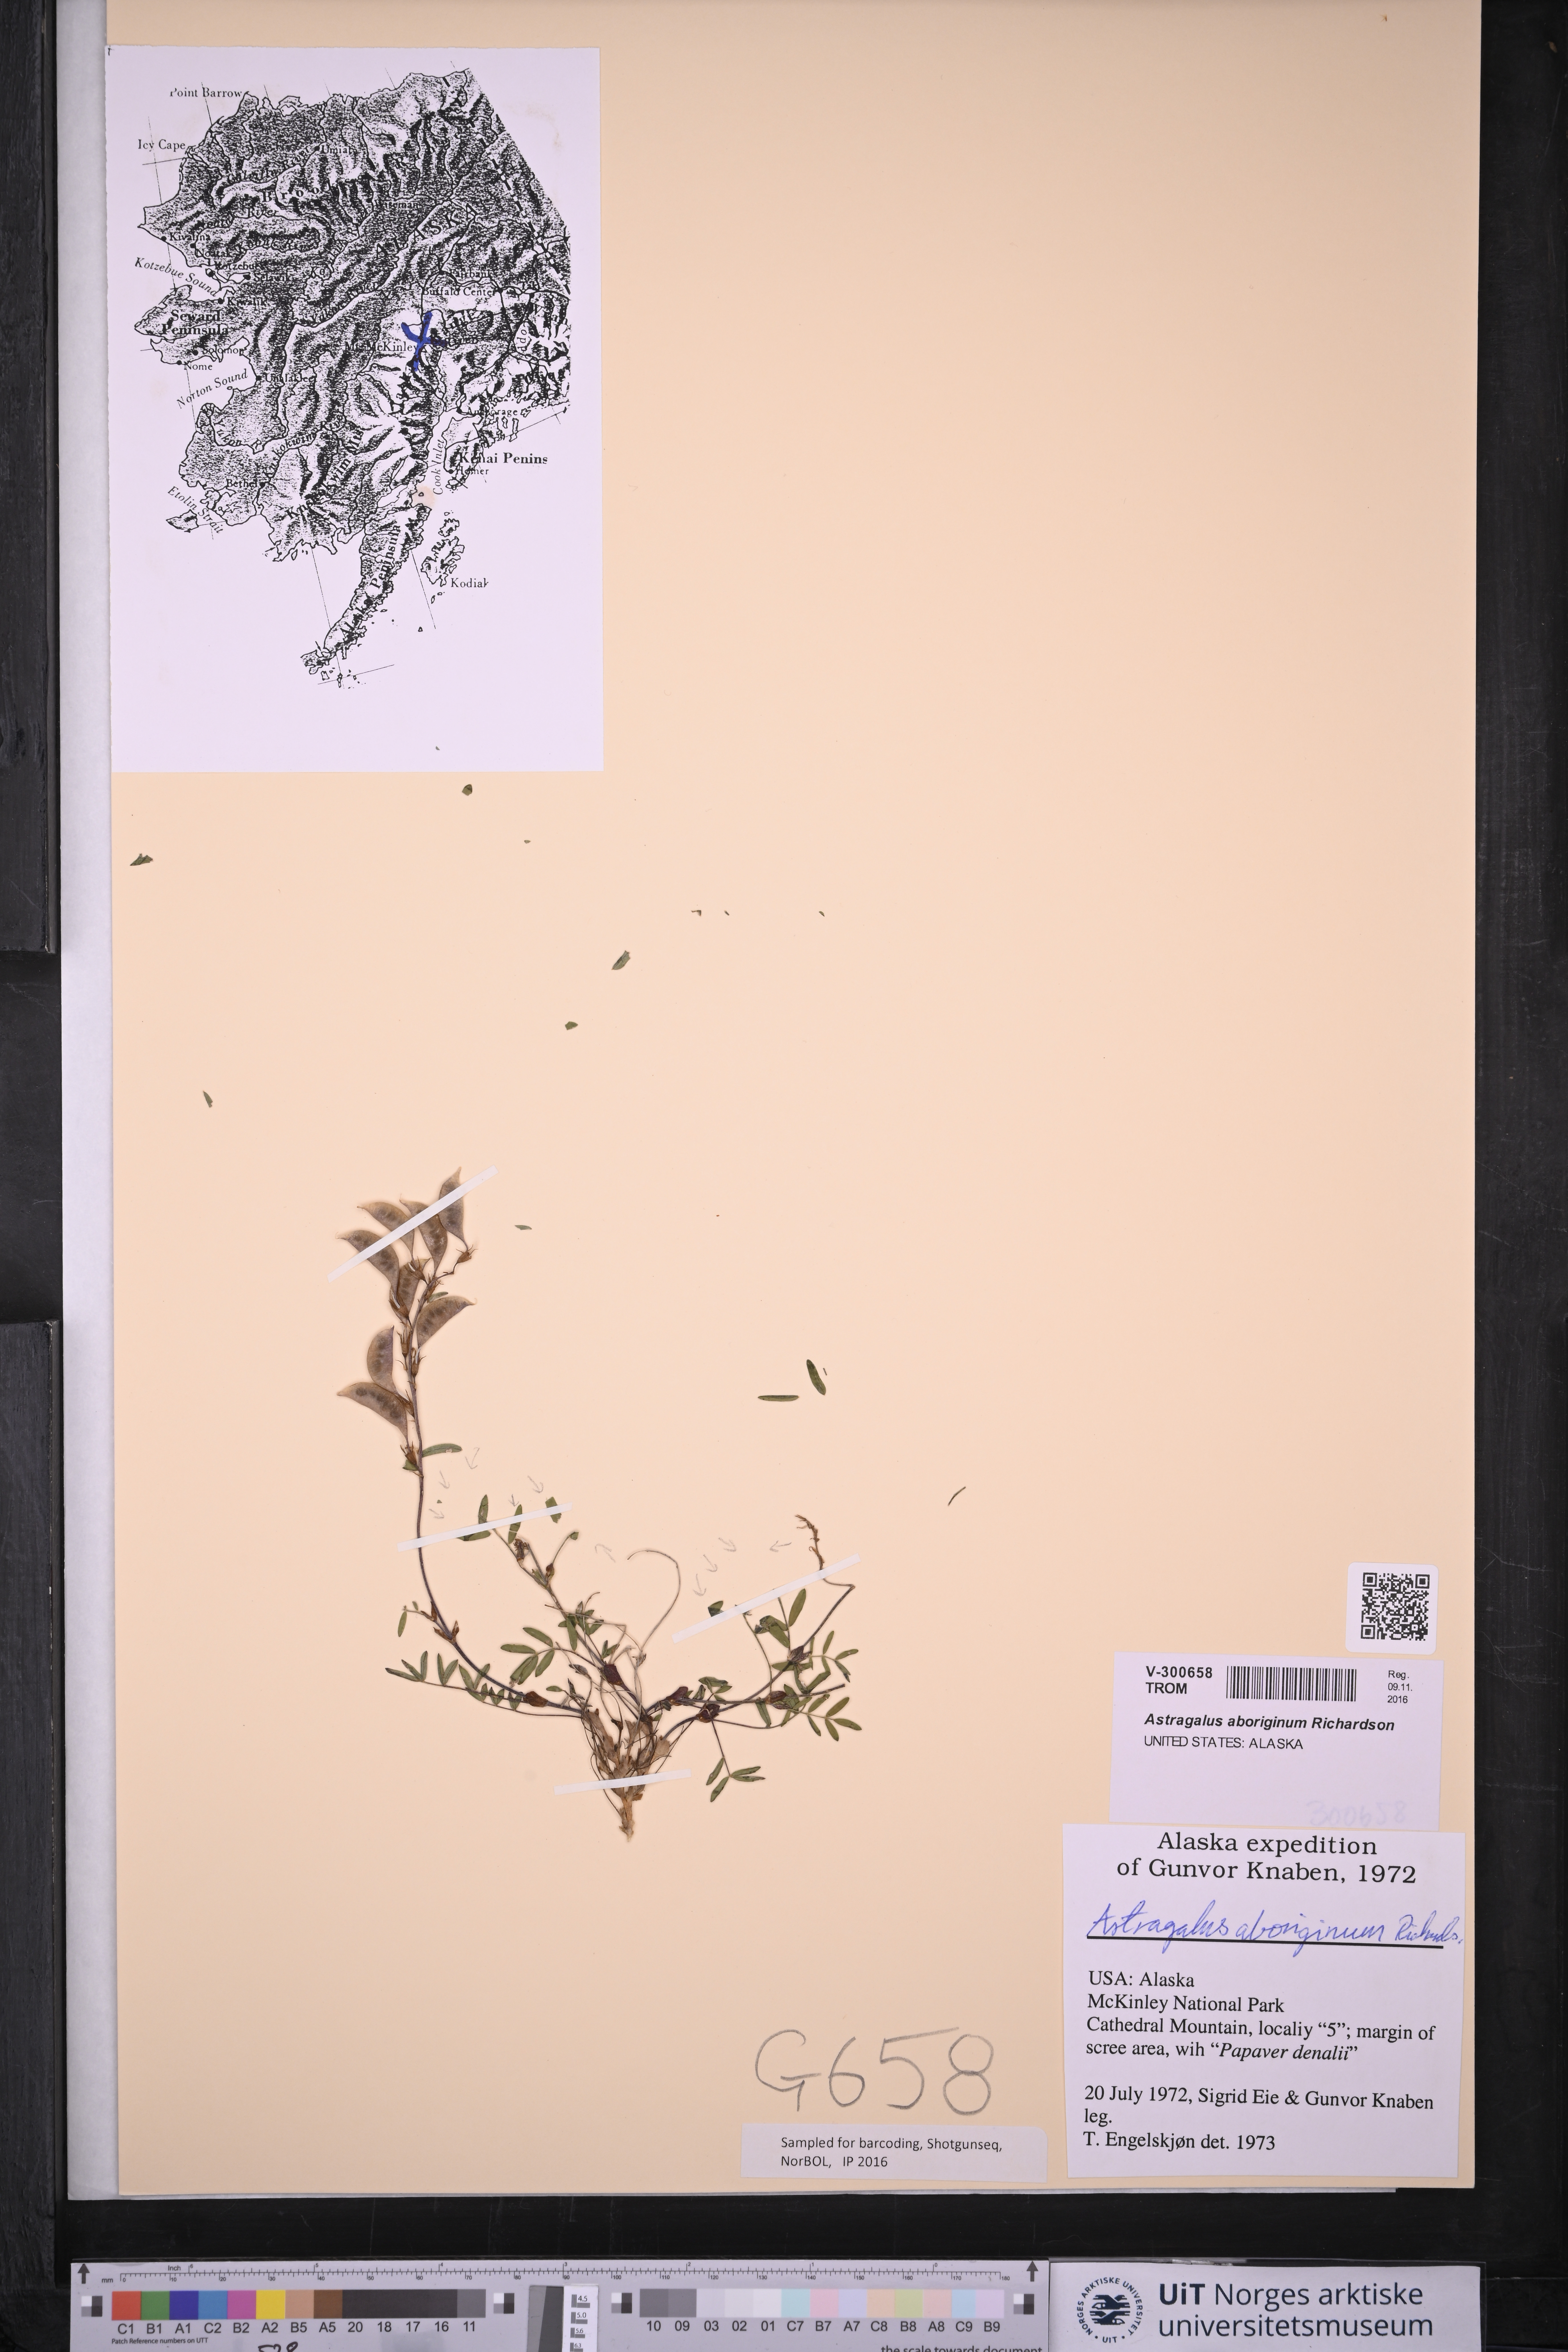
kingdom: Plantae
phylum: Tracheophyta
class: Magnoliopsida
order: Fabales
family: Fabaceae
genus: Astragalus
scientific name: Astragalus aboriginum
